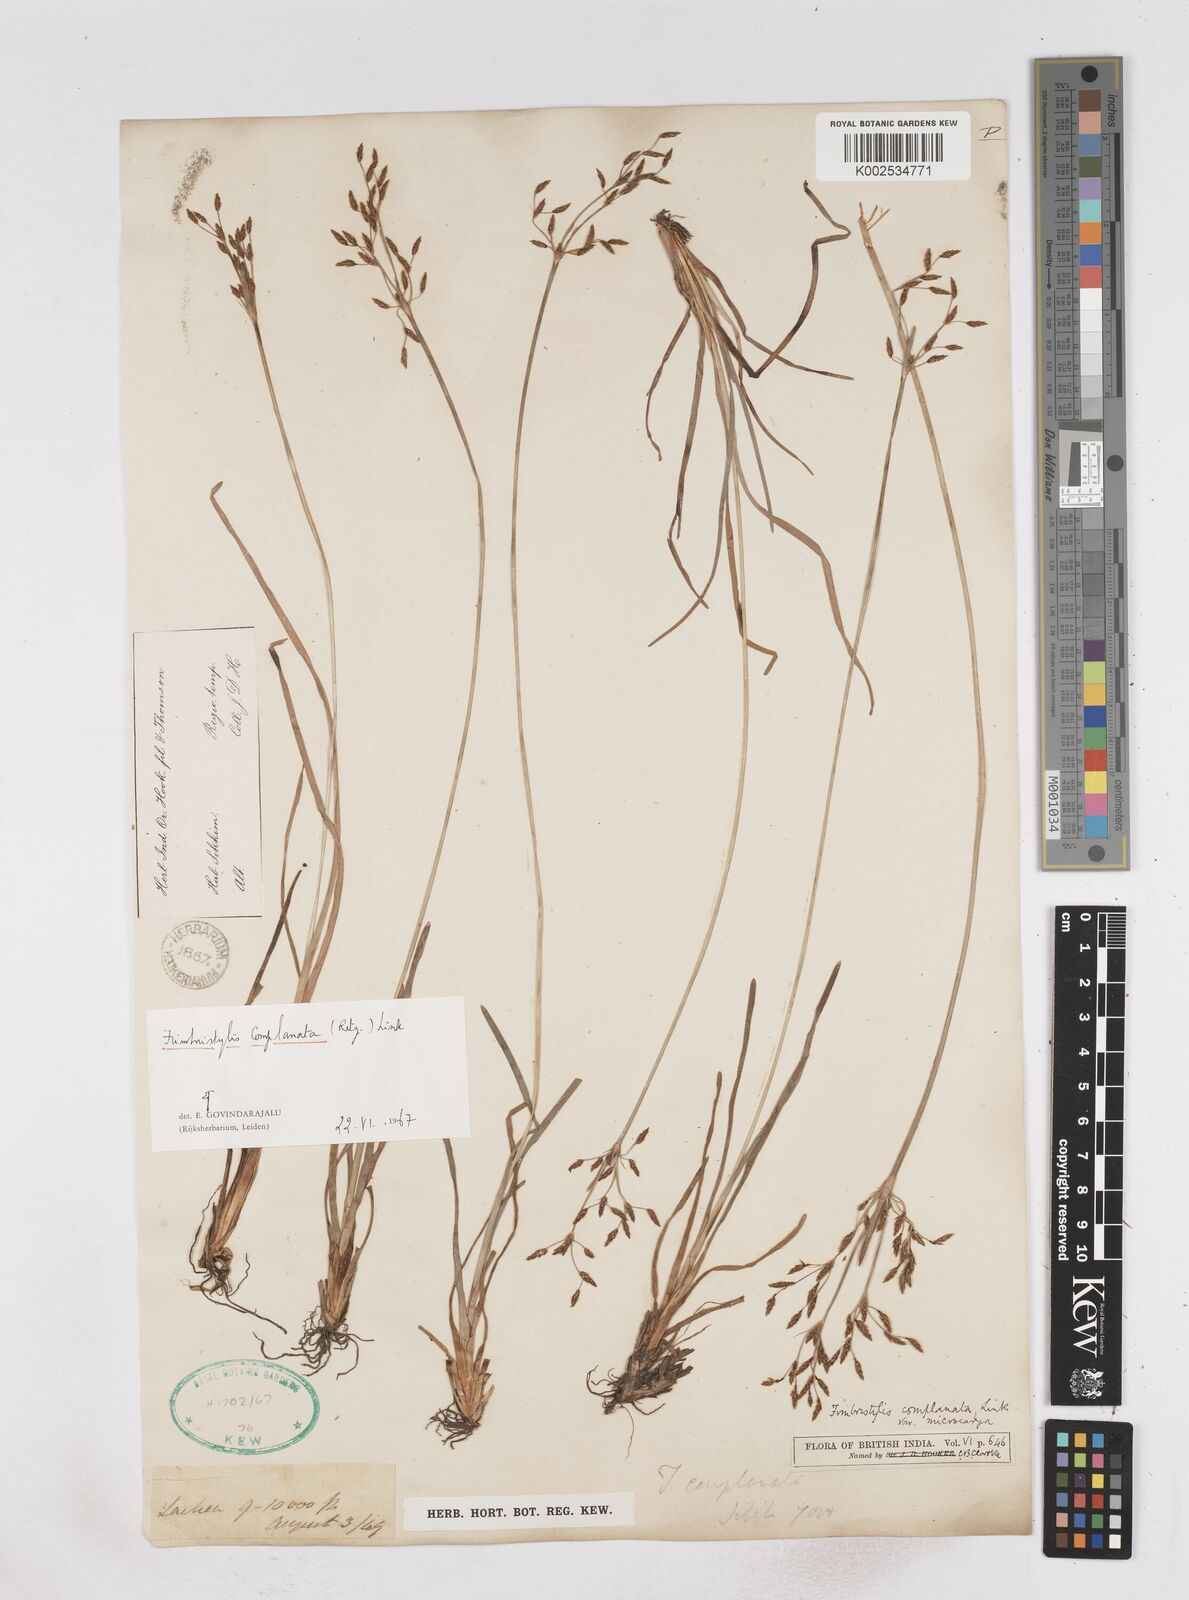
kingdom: Plantae
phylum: Tracheophyta
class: Liliopsida
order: Poales
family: Cyperaceae
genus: Fimbristylis
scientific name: Fimbristylis complanata
